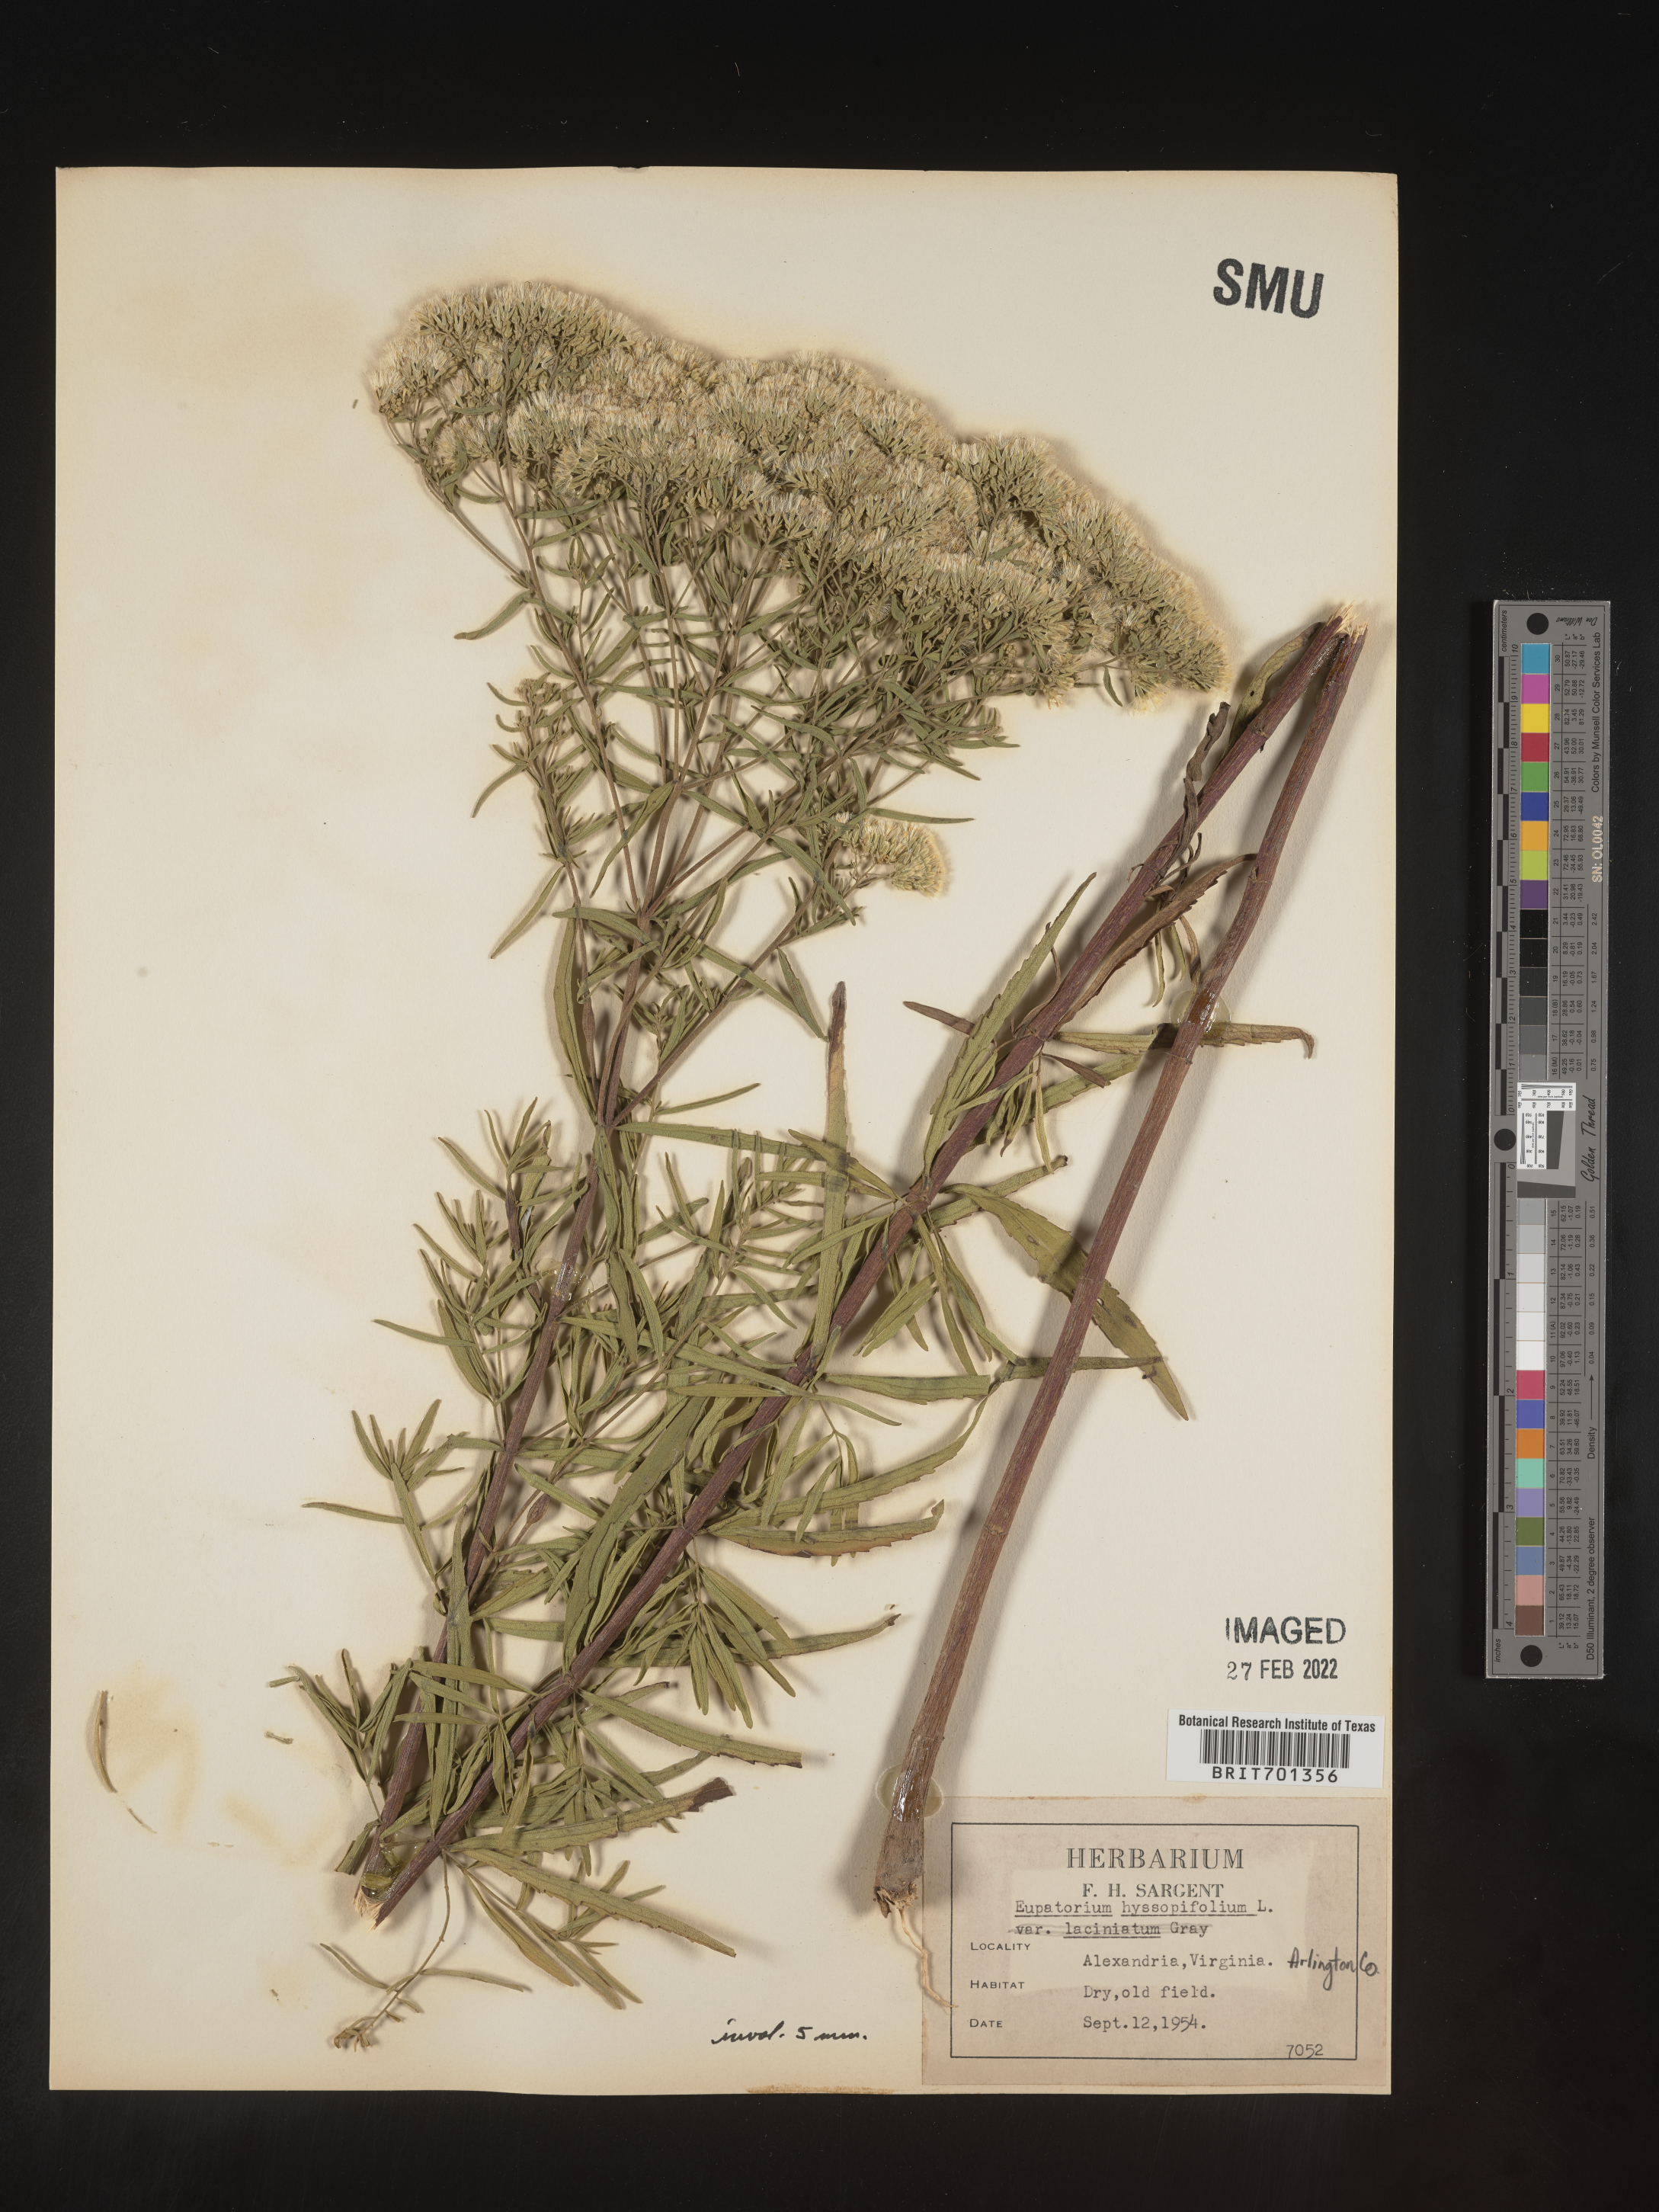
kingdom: Plantae
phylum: Tracheophyta
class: Magnoliopsida
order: Asterales
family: Asteraceae
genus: Eupatorium
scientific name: Eupatorium hyssopifolium
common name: Hyssop-leaf thoroughwort
